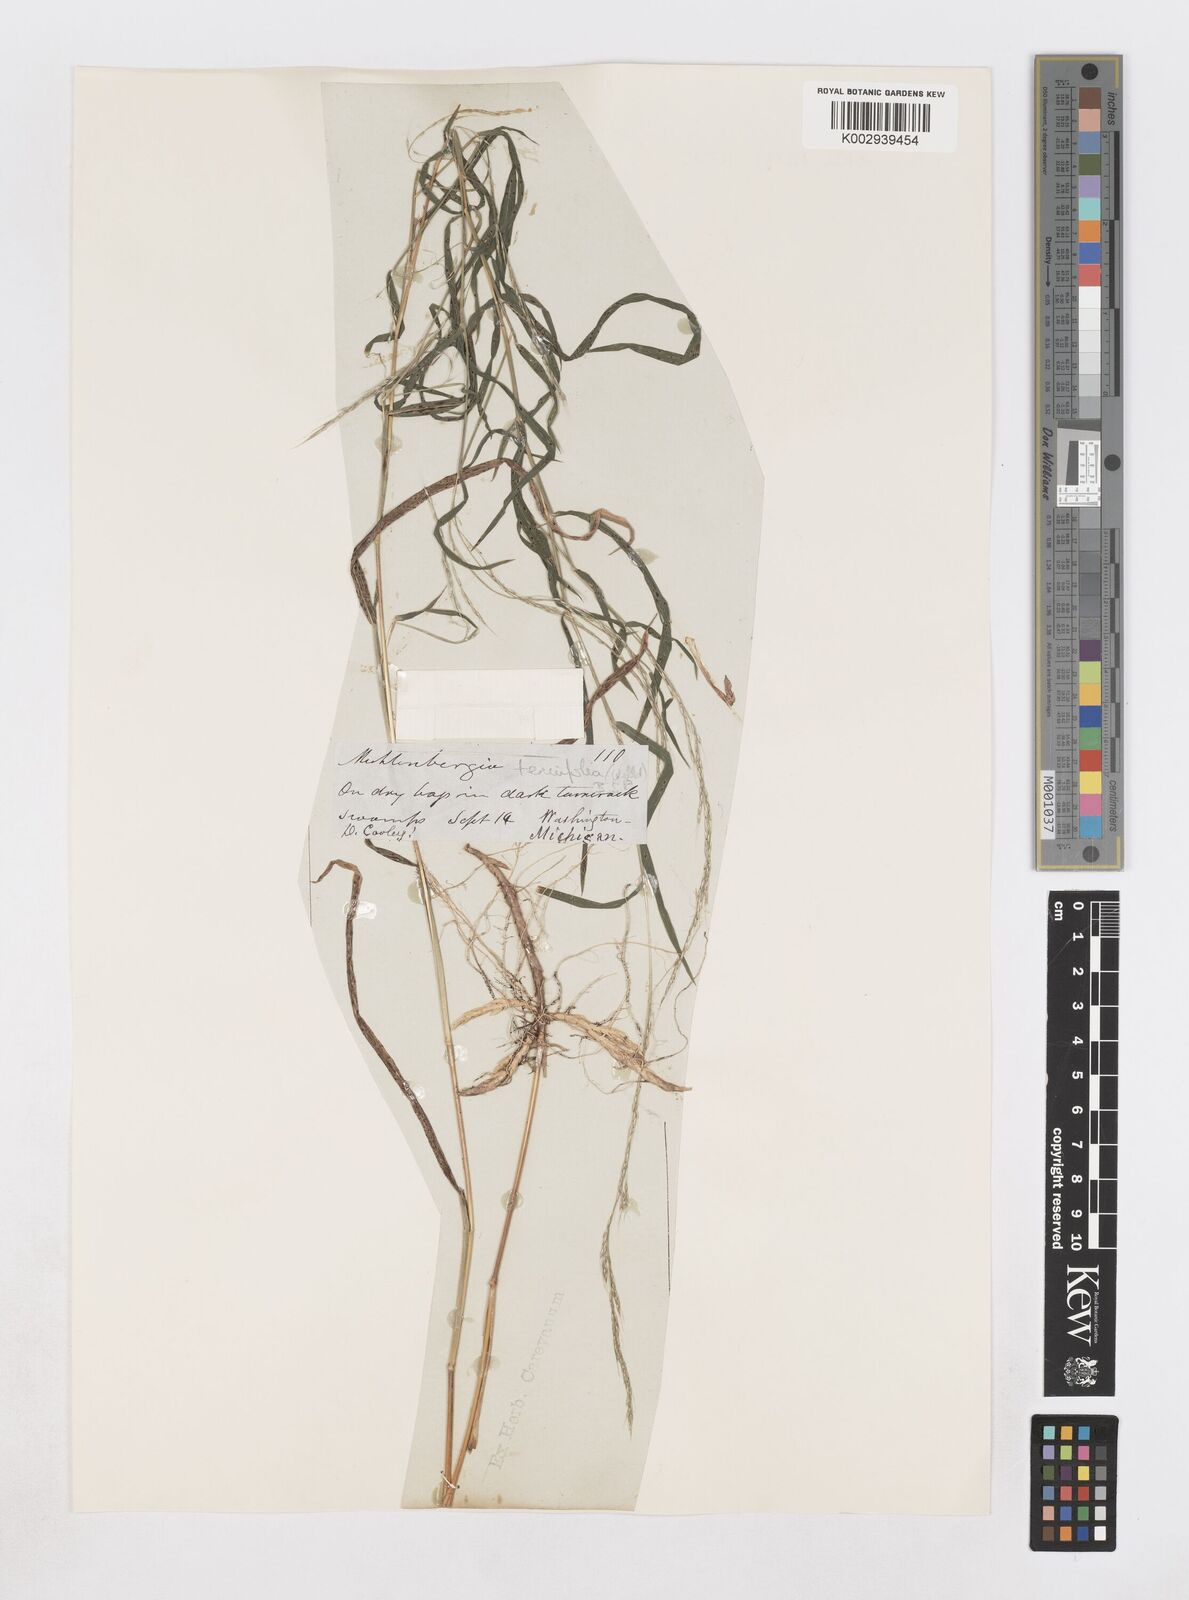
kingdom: Plantae
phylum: Tracheophyta
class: Liliopsida
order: Poales
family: Poaceae
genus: Muhlenbergia
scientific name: Muhlenbergia tenuiflora
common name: Slender muhly
